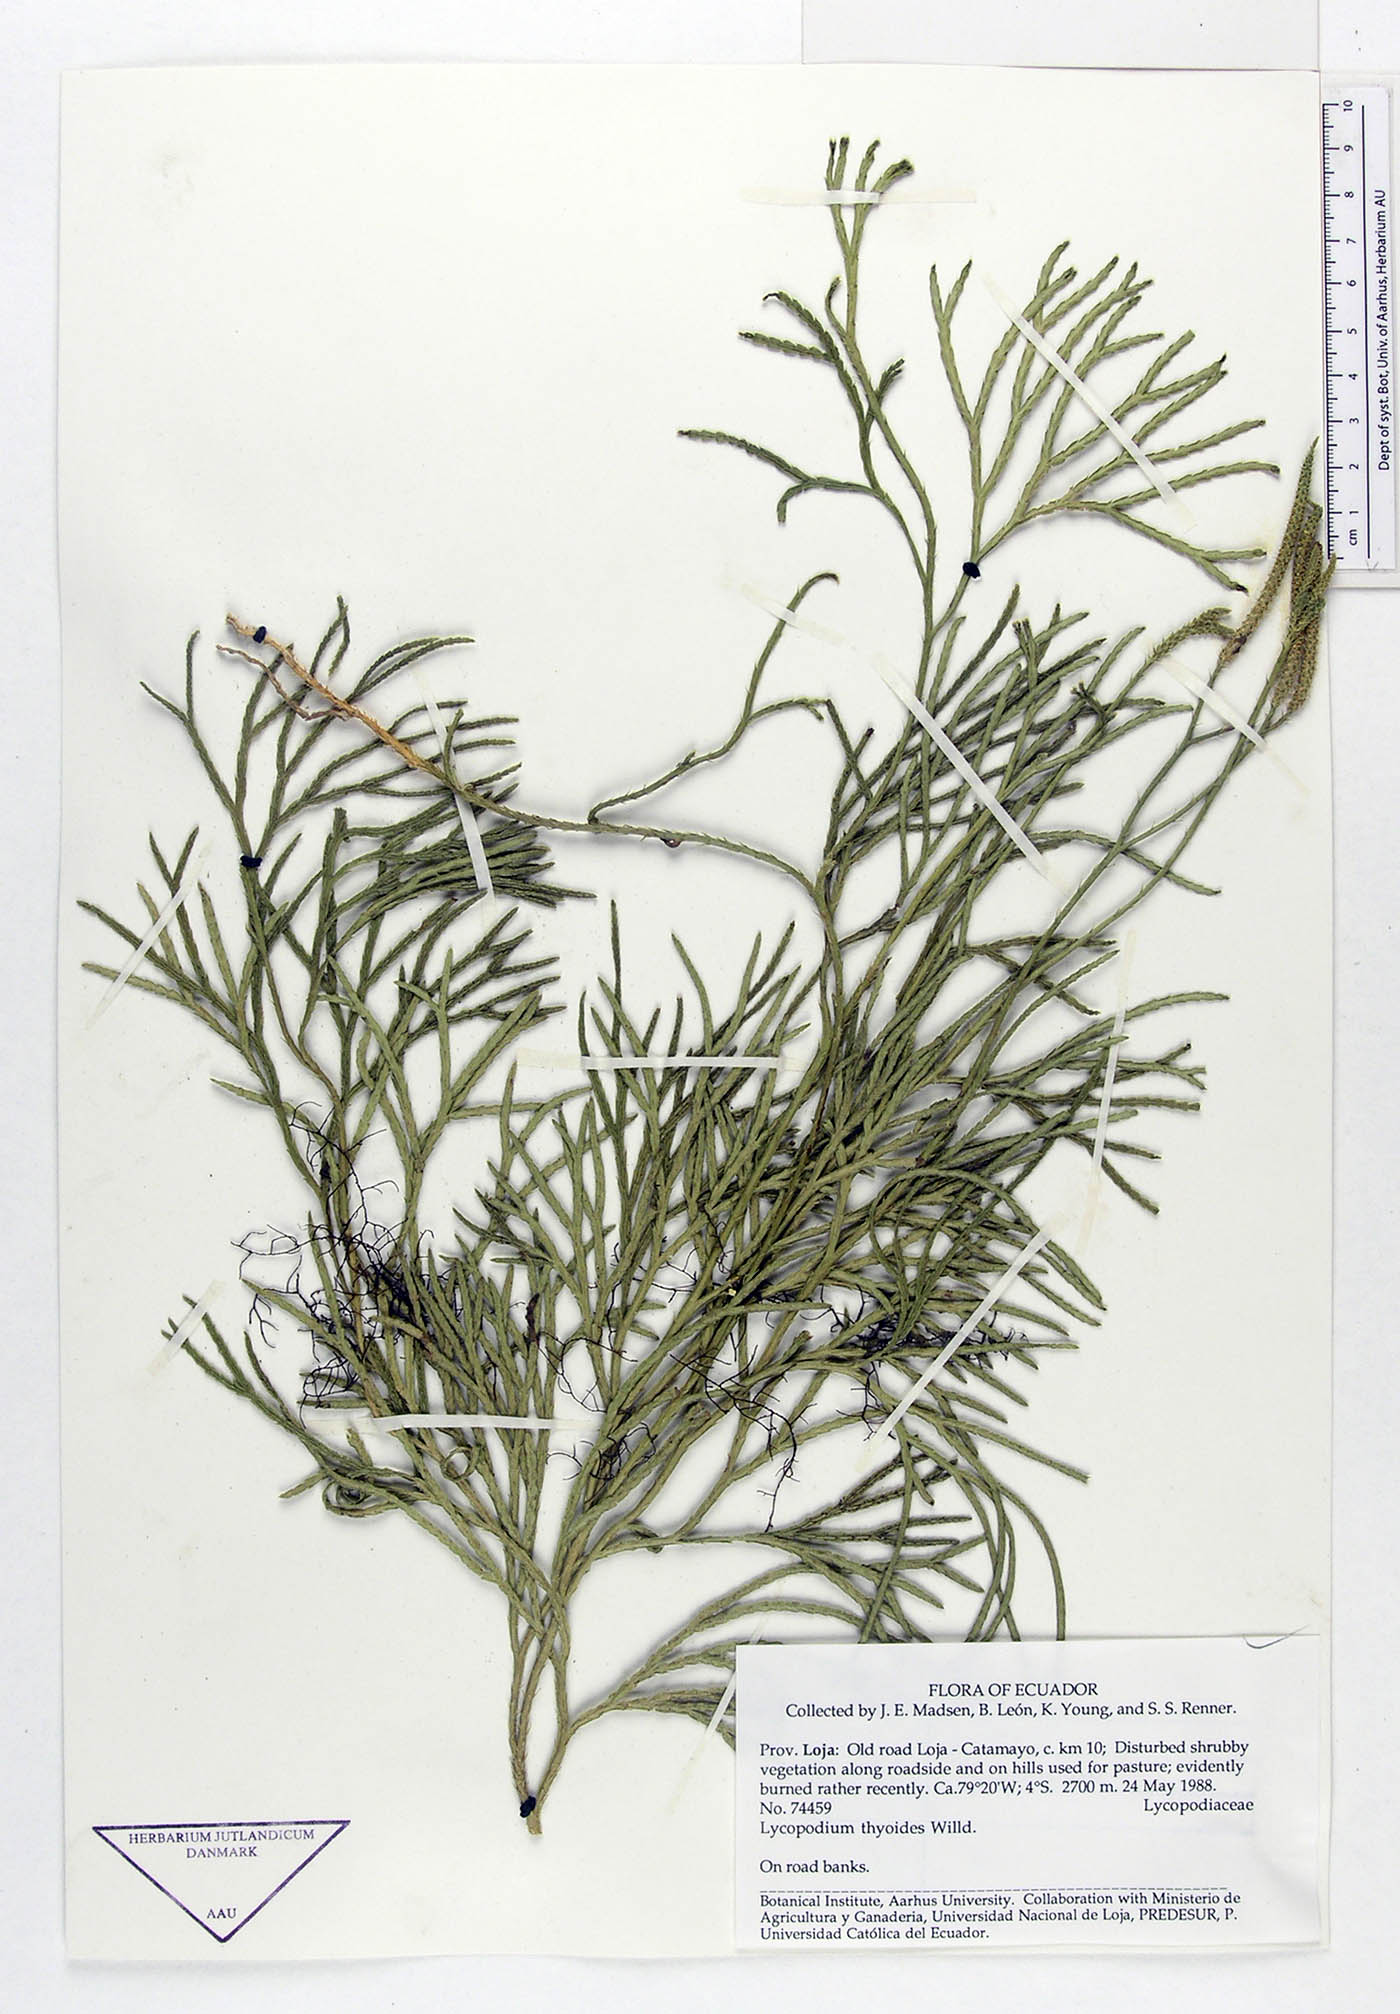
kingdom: Plantae
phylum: Tracheophyta
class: Lycopodiopsida
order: Lycopodiales
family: Lycopodiaceae
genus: Diphasiastrum
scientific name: Diphasiastrum thyoides
